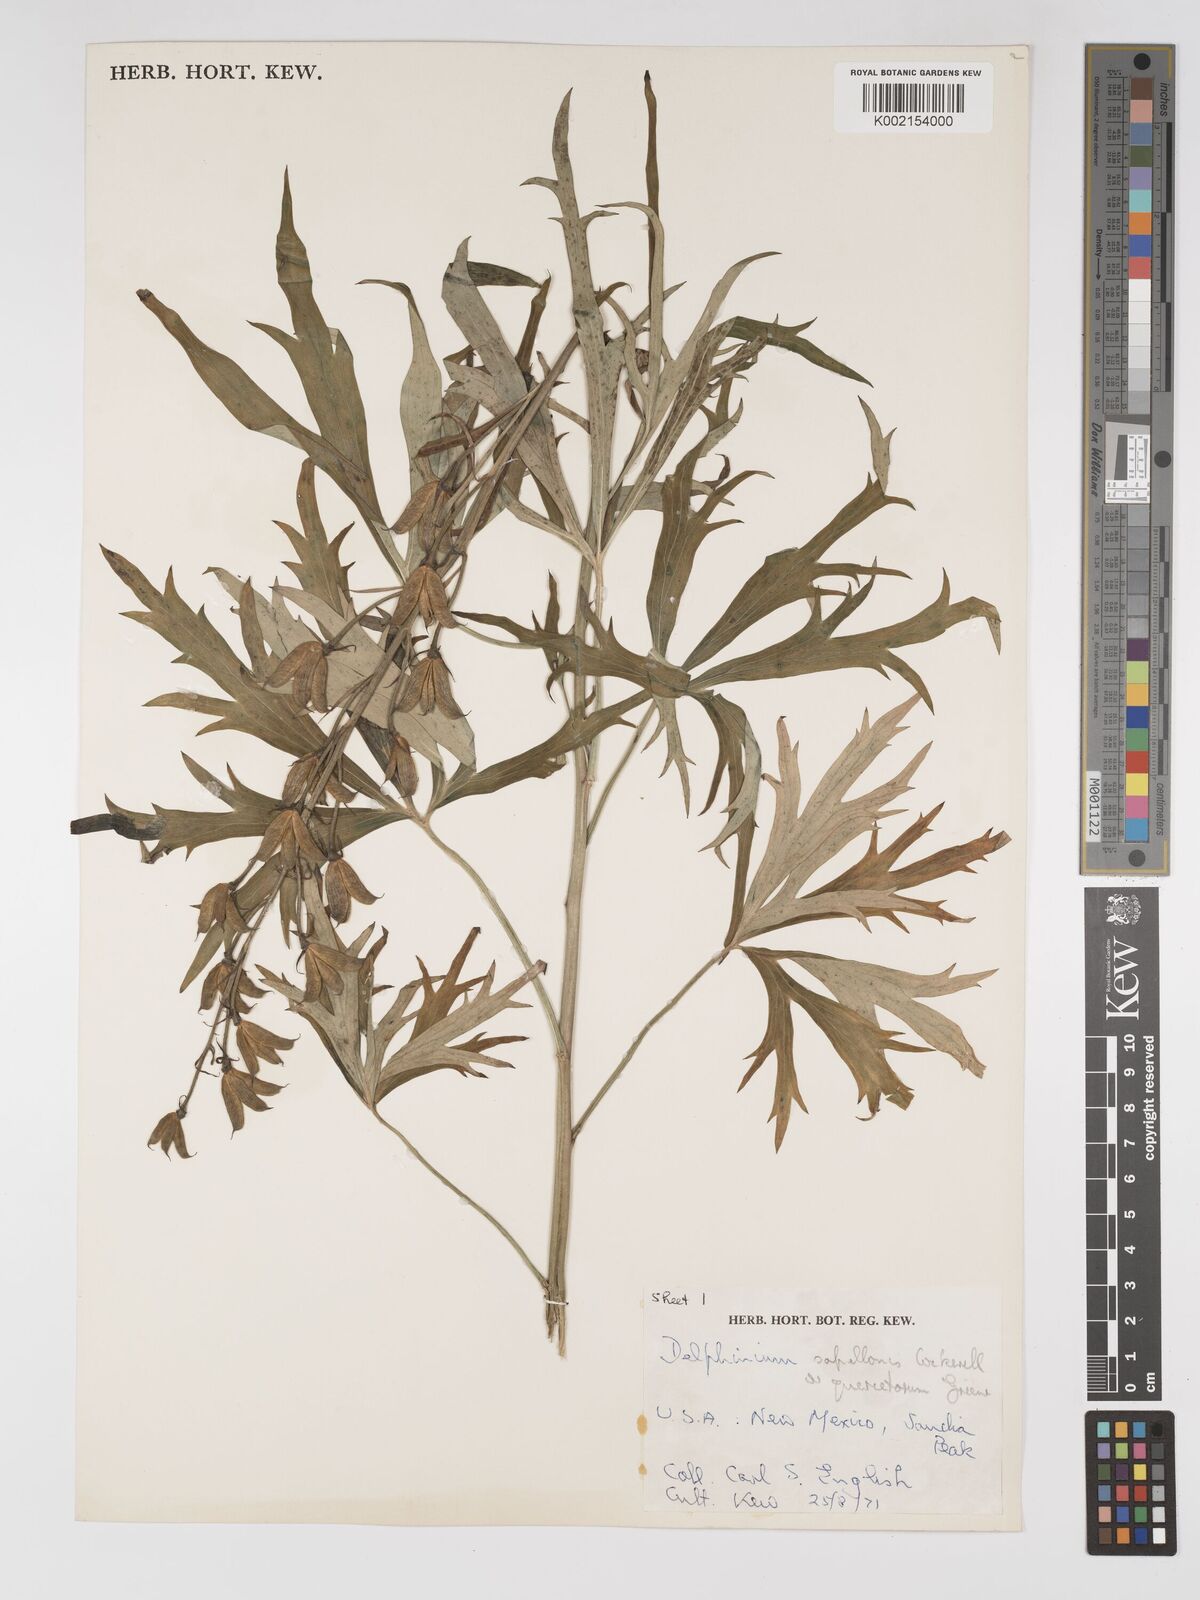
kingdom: Plantae
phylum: Tracheophyta
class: Magnoliopsida
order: Ranunculales
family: Ranunculaceae
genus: Delphinium
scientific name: Delphinium barbeyi
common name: Subalpine larkspur
